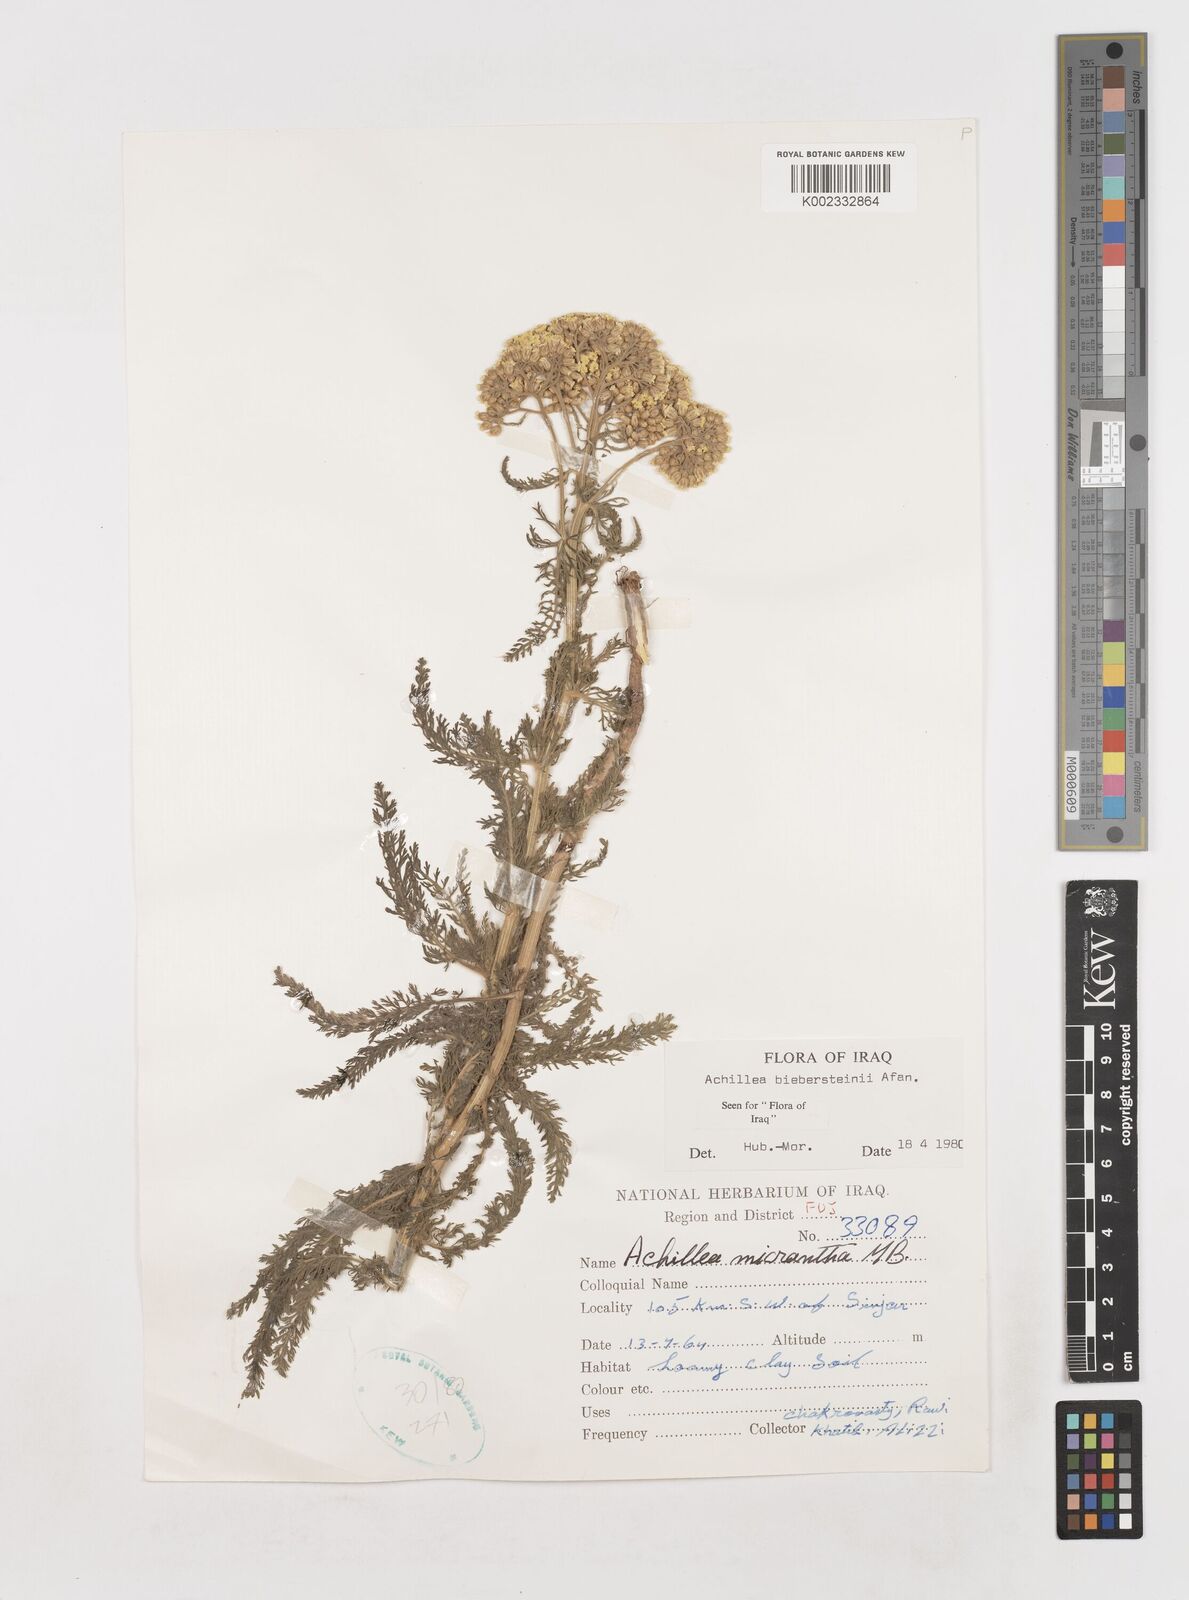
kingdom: Plantae
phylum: Tracheophyta
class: Magnoliopsida
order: Asterales
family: Asteraceae
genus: Achillea
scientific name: Achillea arabica
